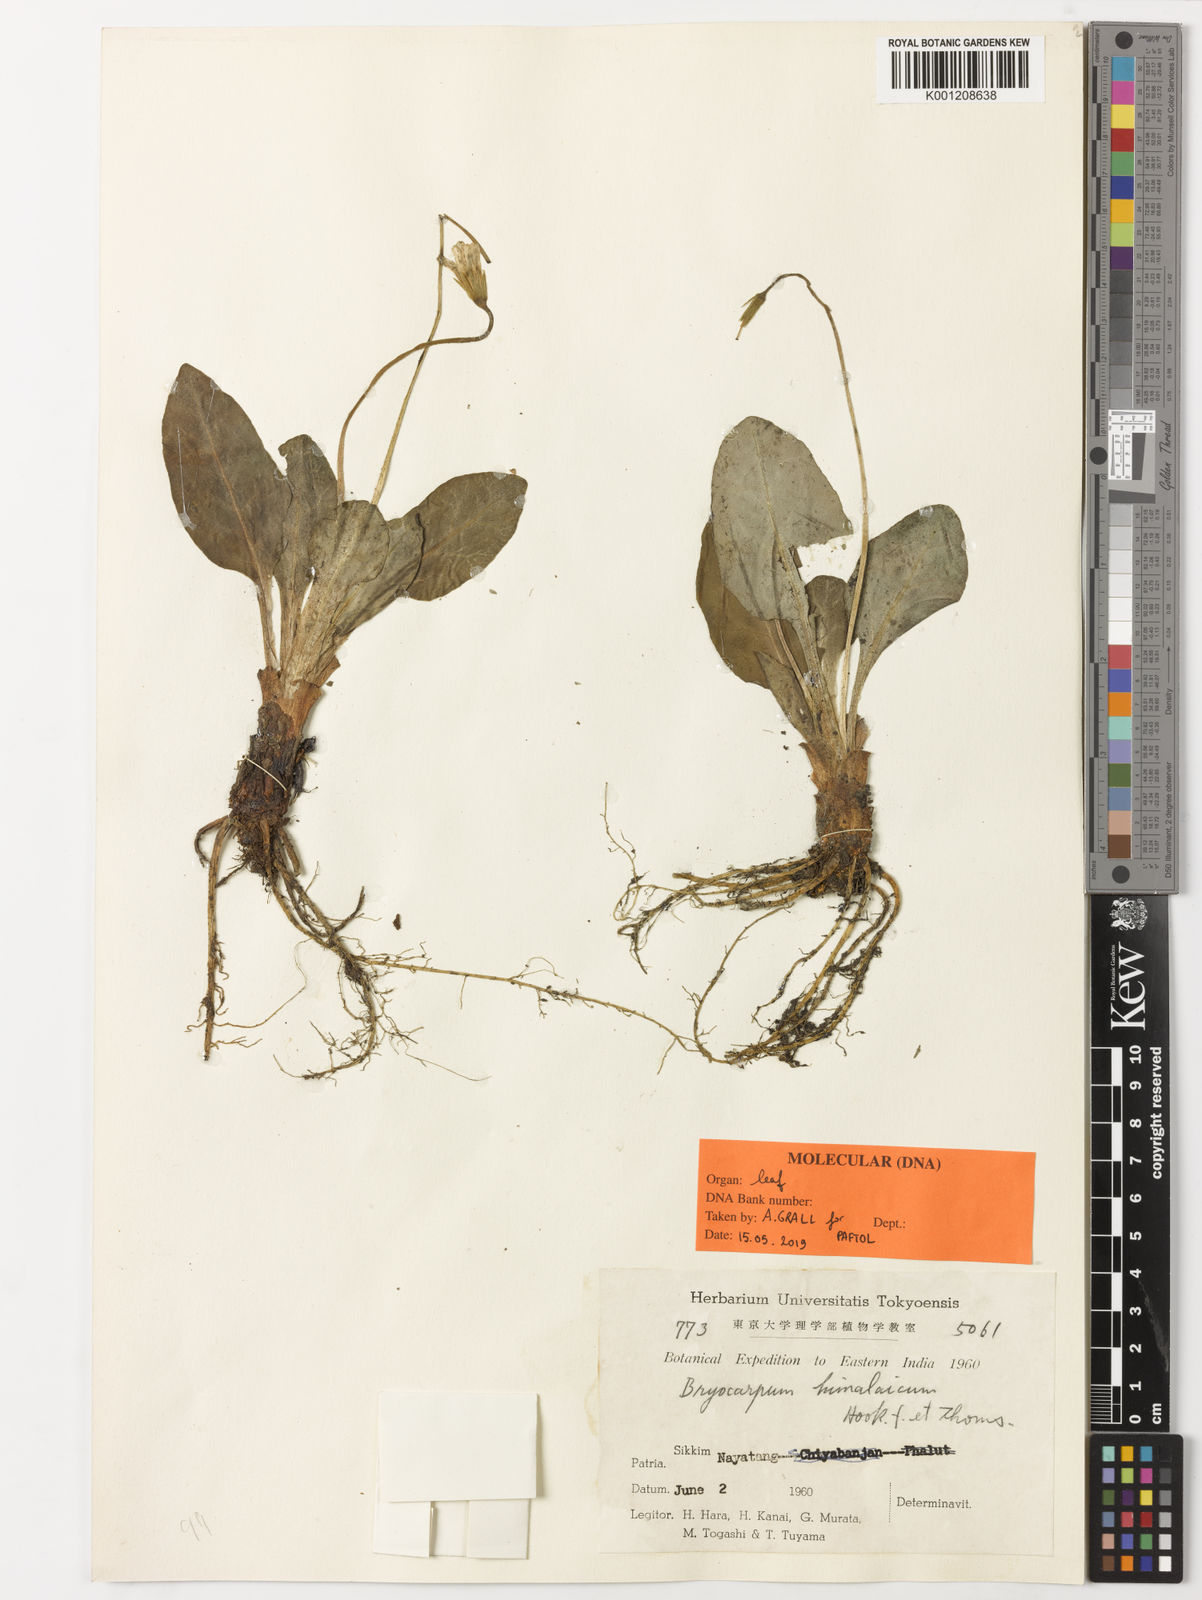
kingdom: Plantae
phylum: Tracheophyta
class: Magnoliopsida
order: Ericales
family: Primulaceae
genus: Bryocarpum
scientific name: Bryocarpum himalaicum
